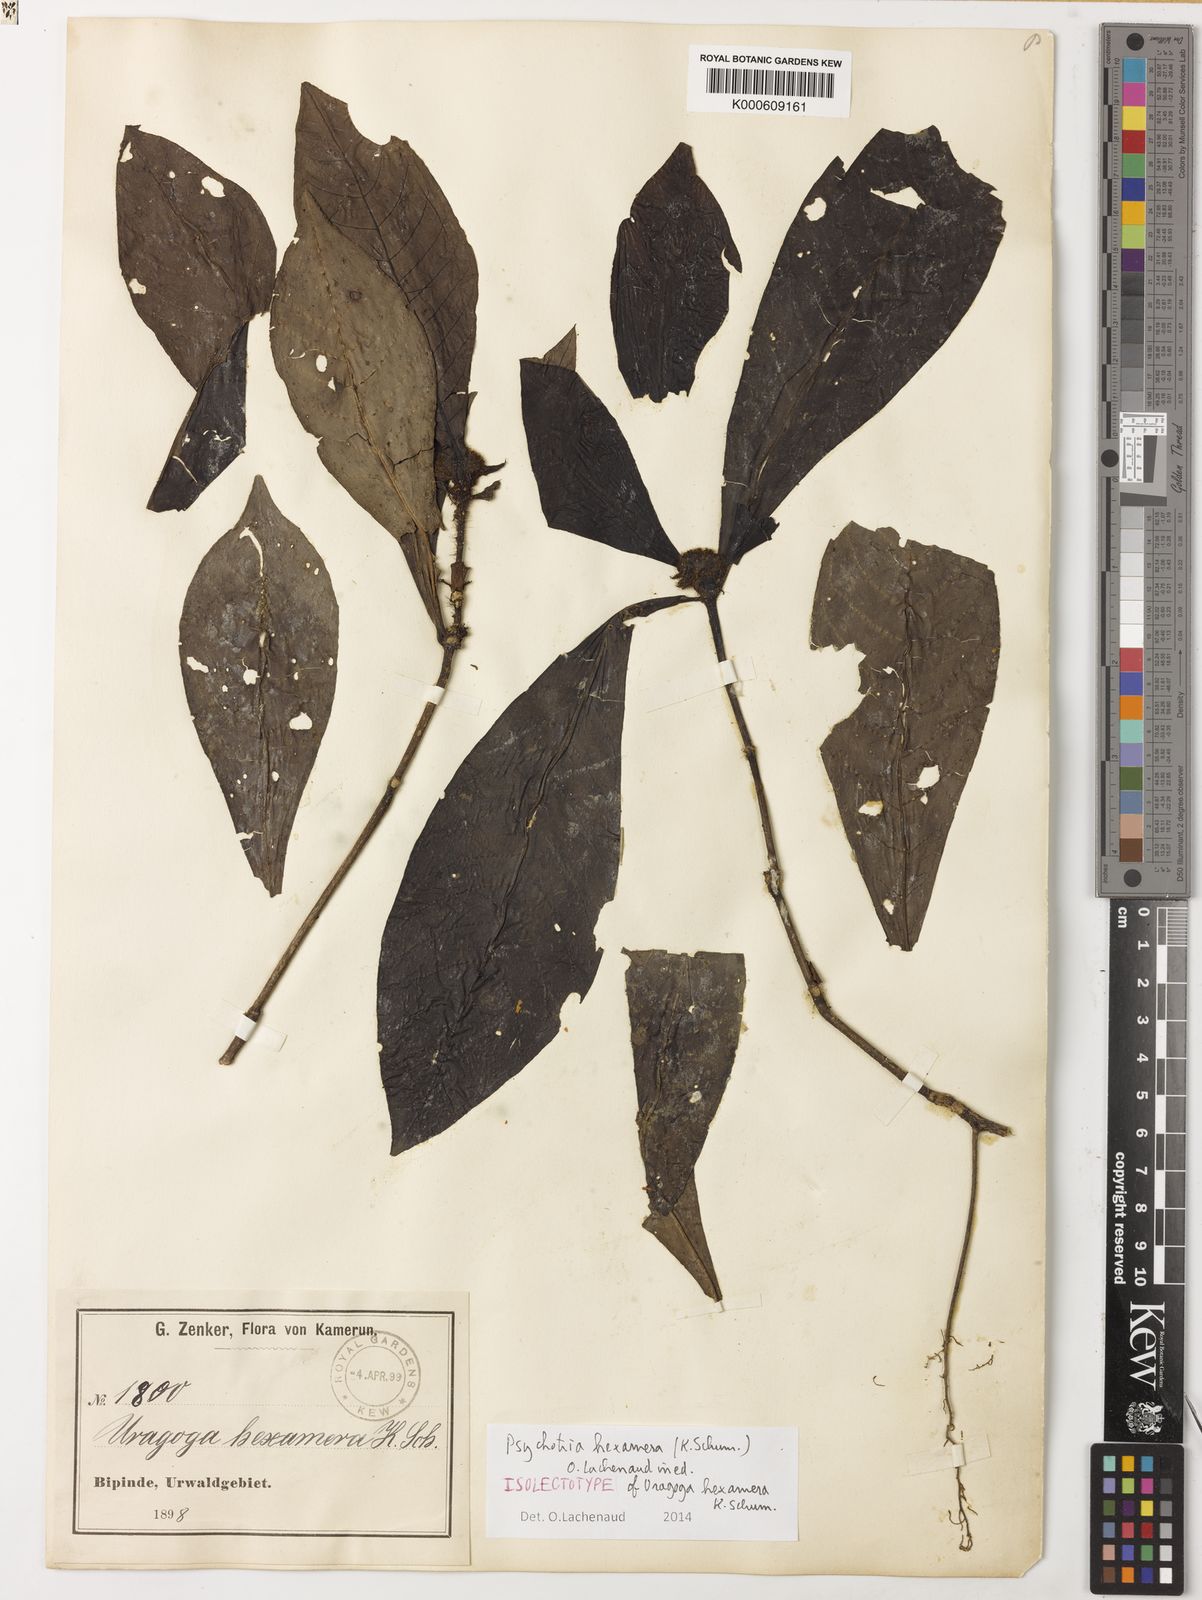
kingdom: Plantae
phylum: Tracheophyta
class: Magnoliopsida
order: Gentianales
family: Rubiaceae
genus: Psychotria
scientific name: Psychotria hexamera
